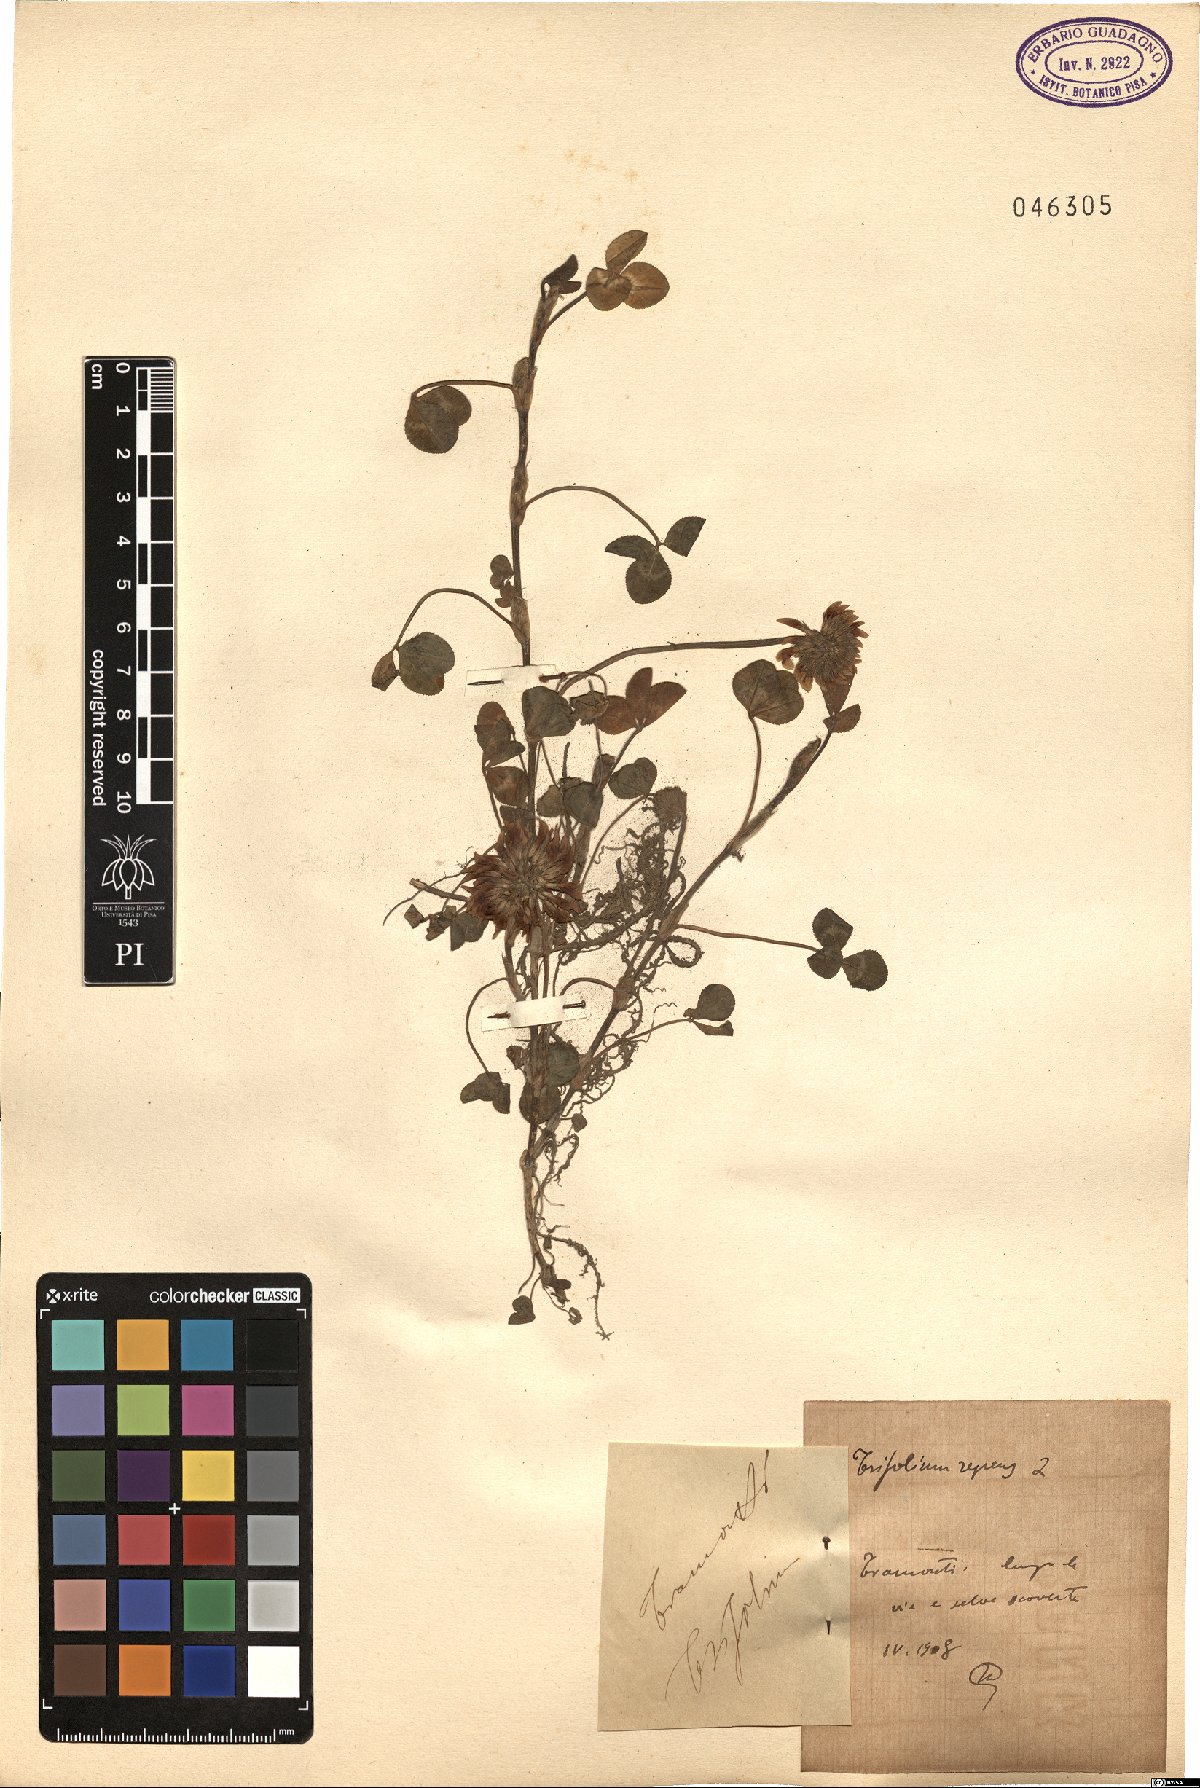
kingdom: Plantae
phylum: Tracheophyta
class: Magnoliopsida
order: Fabales
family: Fabaceae
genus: Trifolium
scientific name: Trifolium repens
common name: White clover
